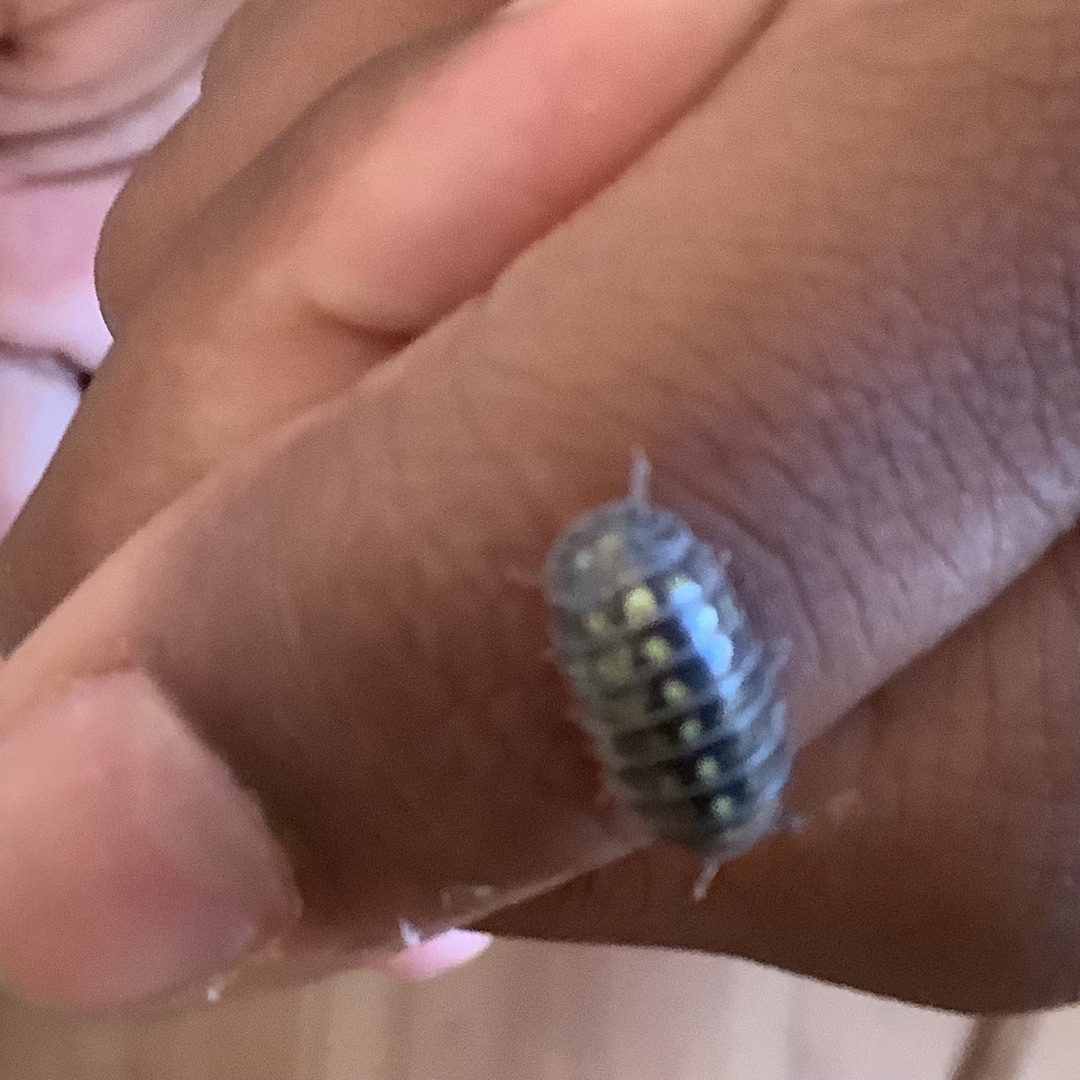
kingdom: Animalia
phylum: Arthropoda
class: Malacostraca
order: Isopoda
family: Armadillidiidae
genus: Armadillidium
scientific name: Armadillidium vulgare
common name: Almindelig kuglebænkebider
